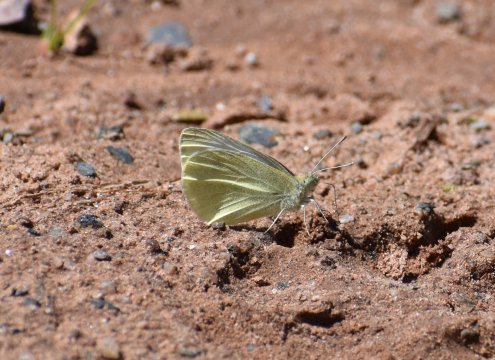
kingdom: Animalia
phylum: Arthropoda
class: Insecta
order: Lepidoptera
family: Pieridae
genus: Pieris
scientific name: Pieris rapae
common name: Cabbage White
